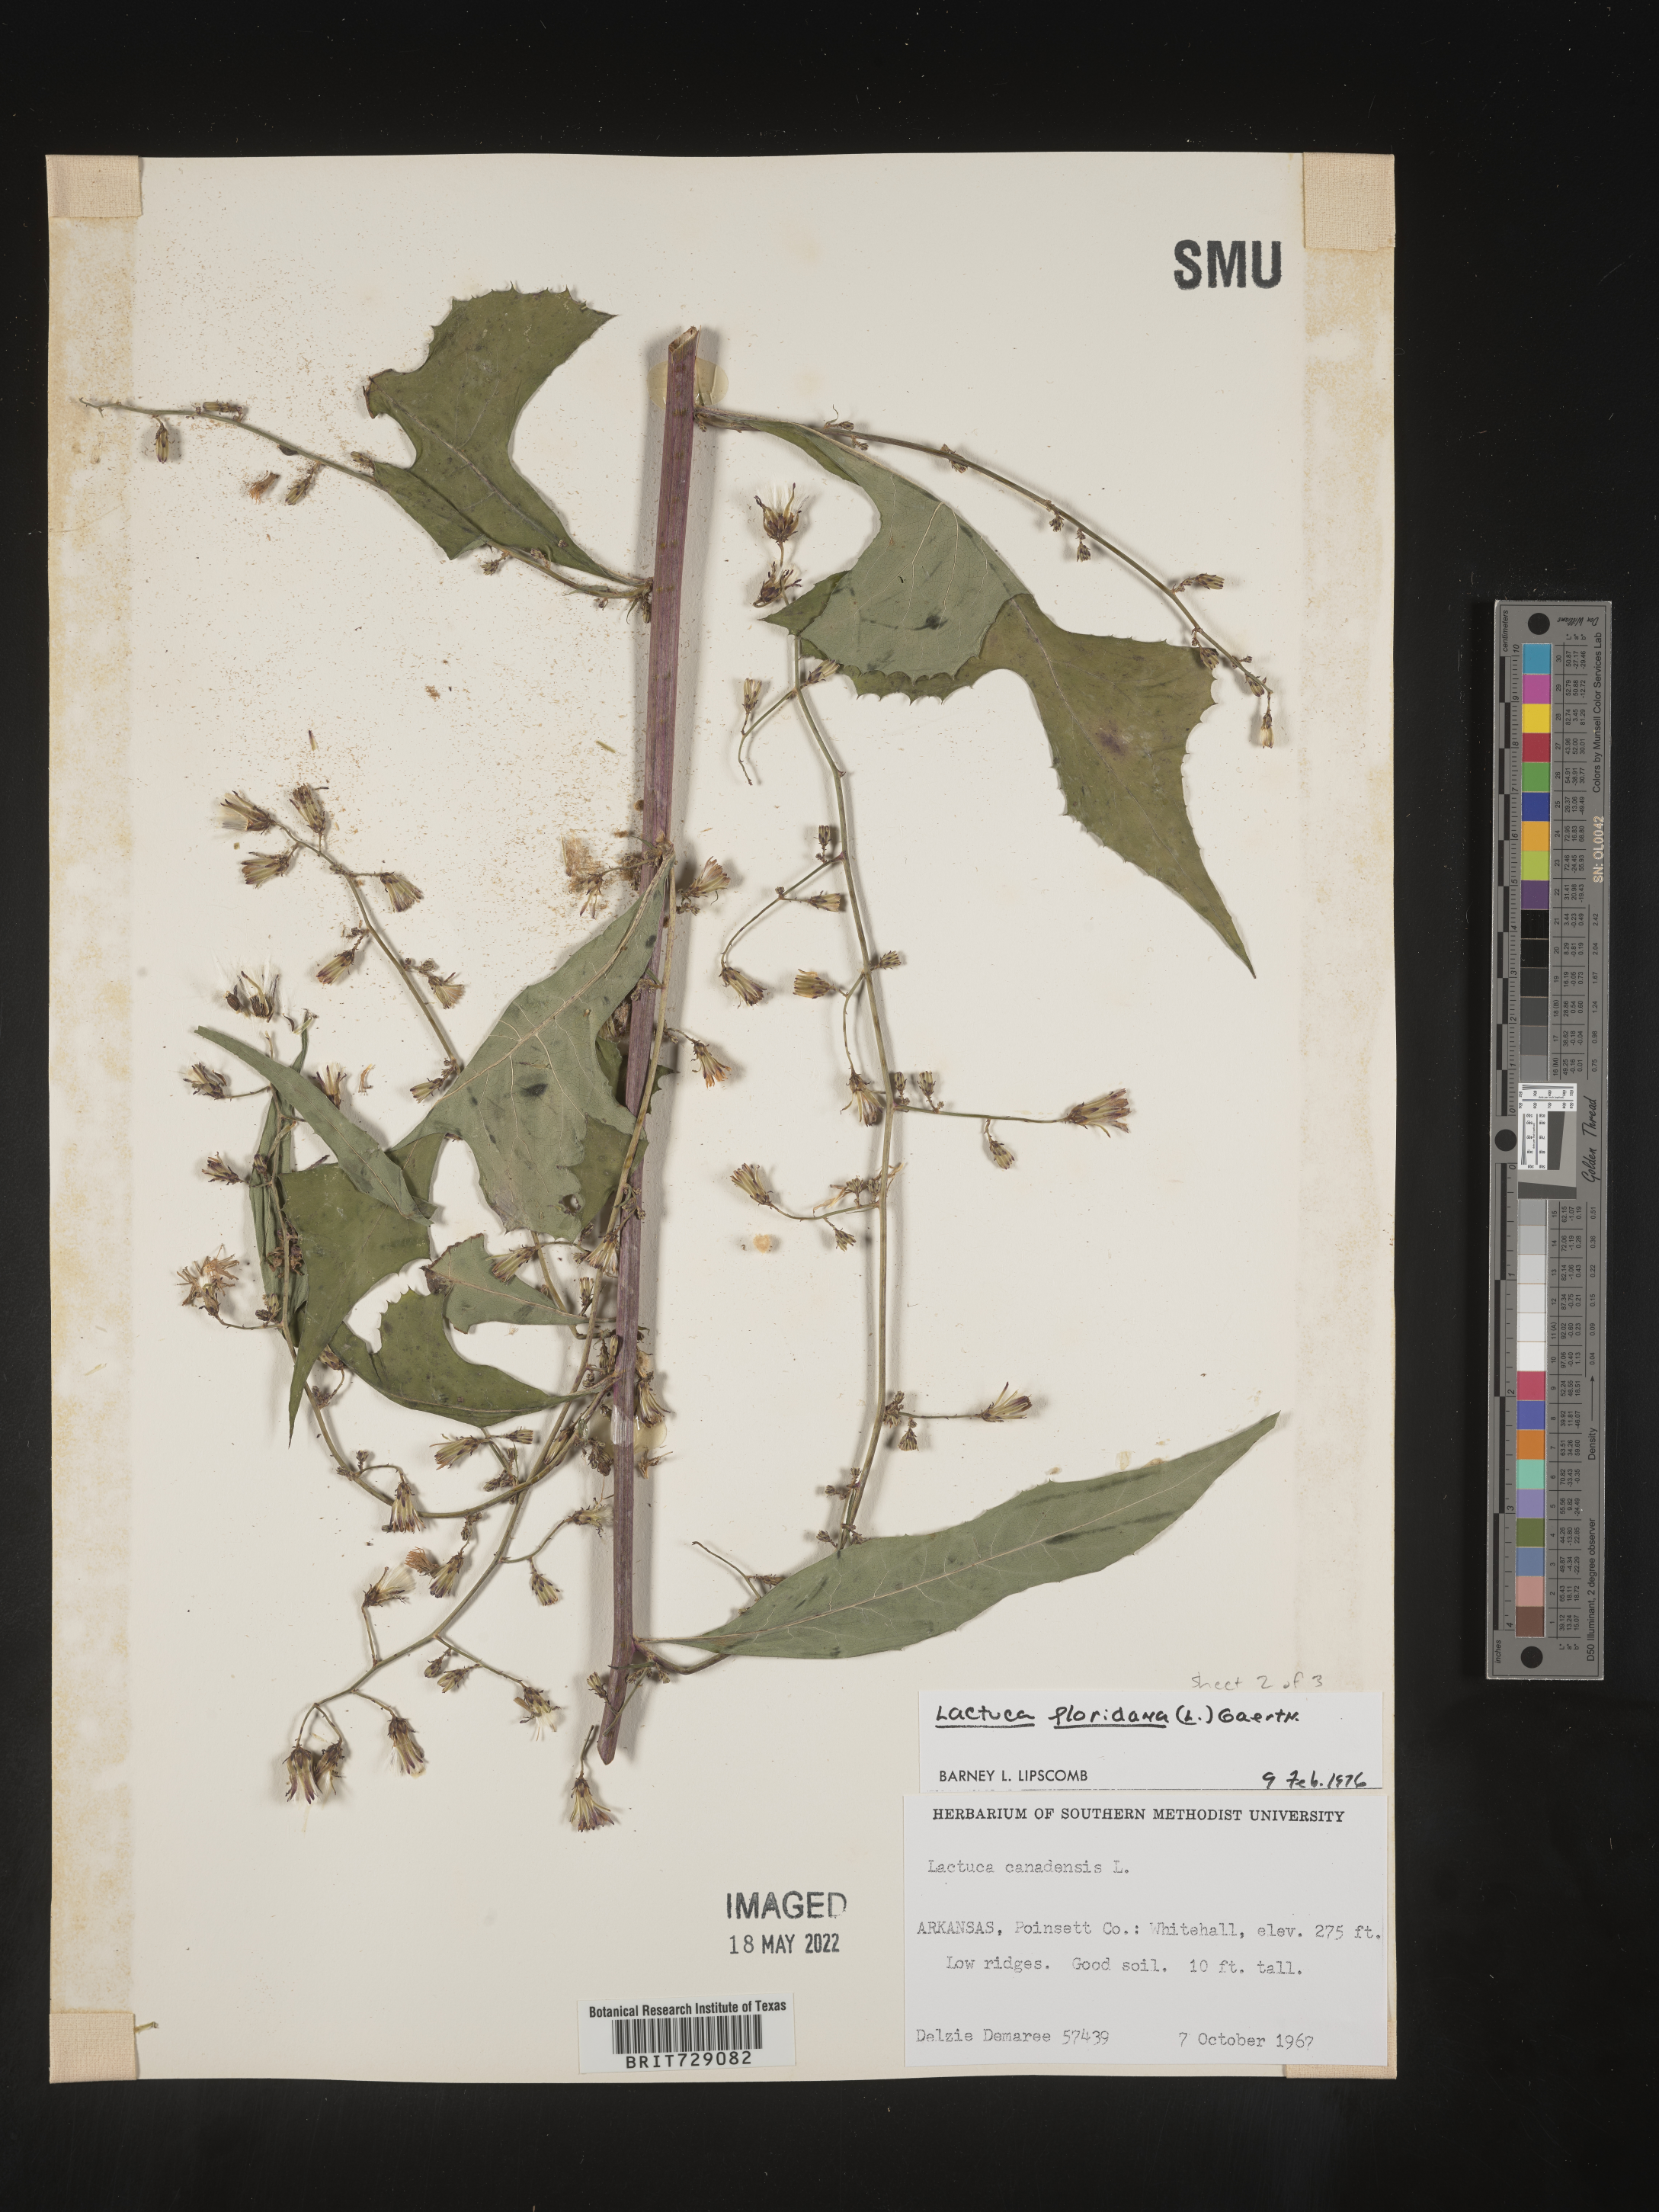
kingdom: Plantae
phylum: Tracheophyta
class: Magnoliopsida
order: Asterales
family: Asteraceae
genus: Lactuca
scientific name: Lactuca floridana
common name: Woodland lettuce
